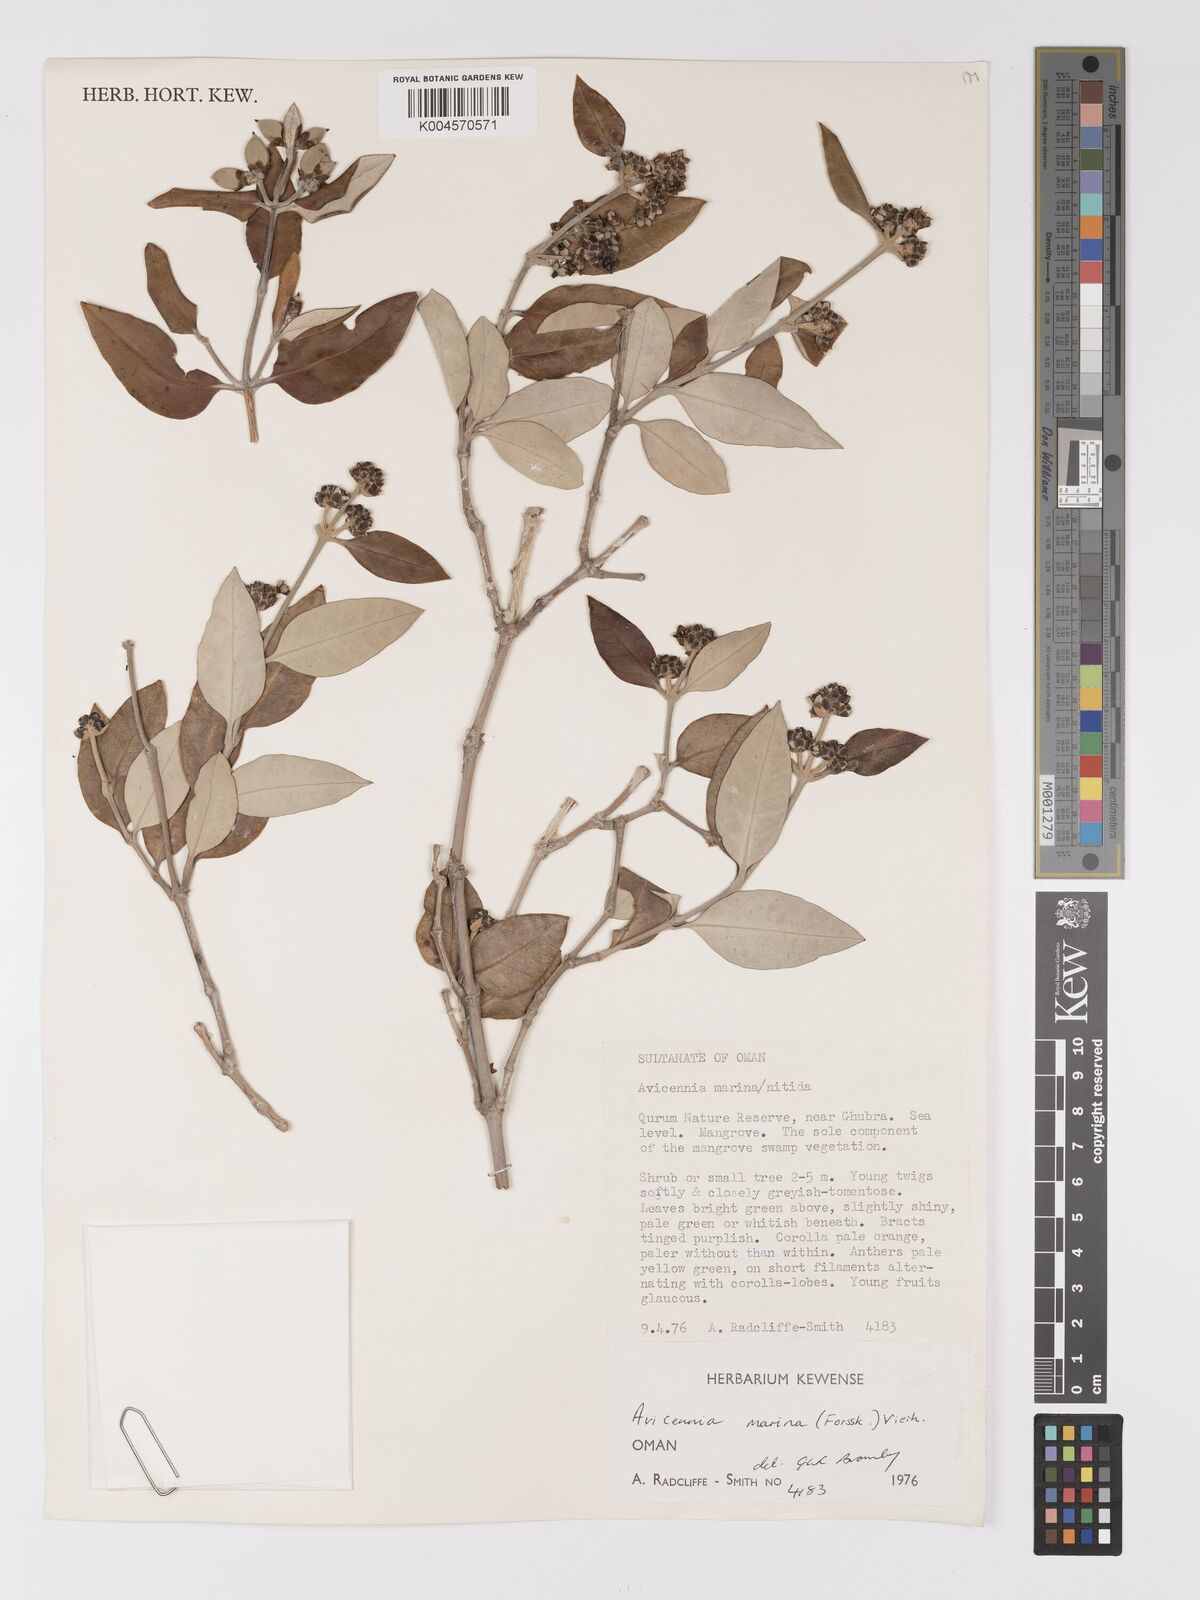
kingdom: Plantae
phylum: Tracheophyta
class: Magnoliopsida
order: Lamiales
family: Acanthaceae
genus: Avicennia
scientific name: Avicennia marina
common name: Gray mangrove
